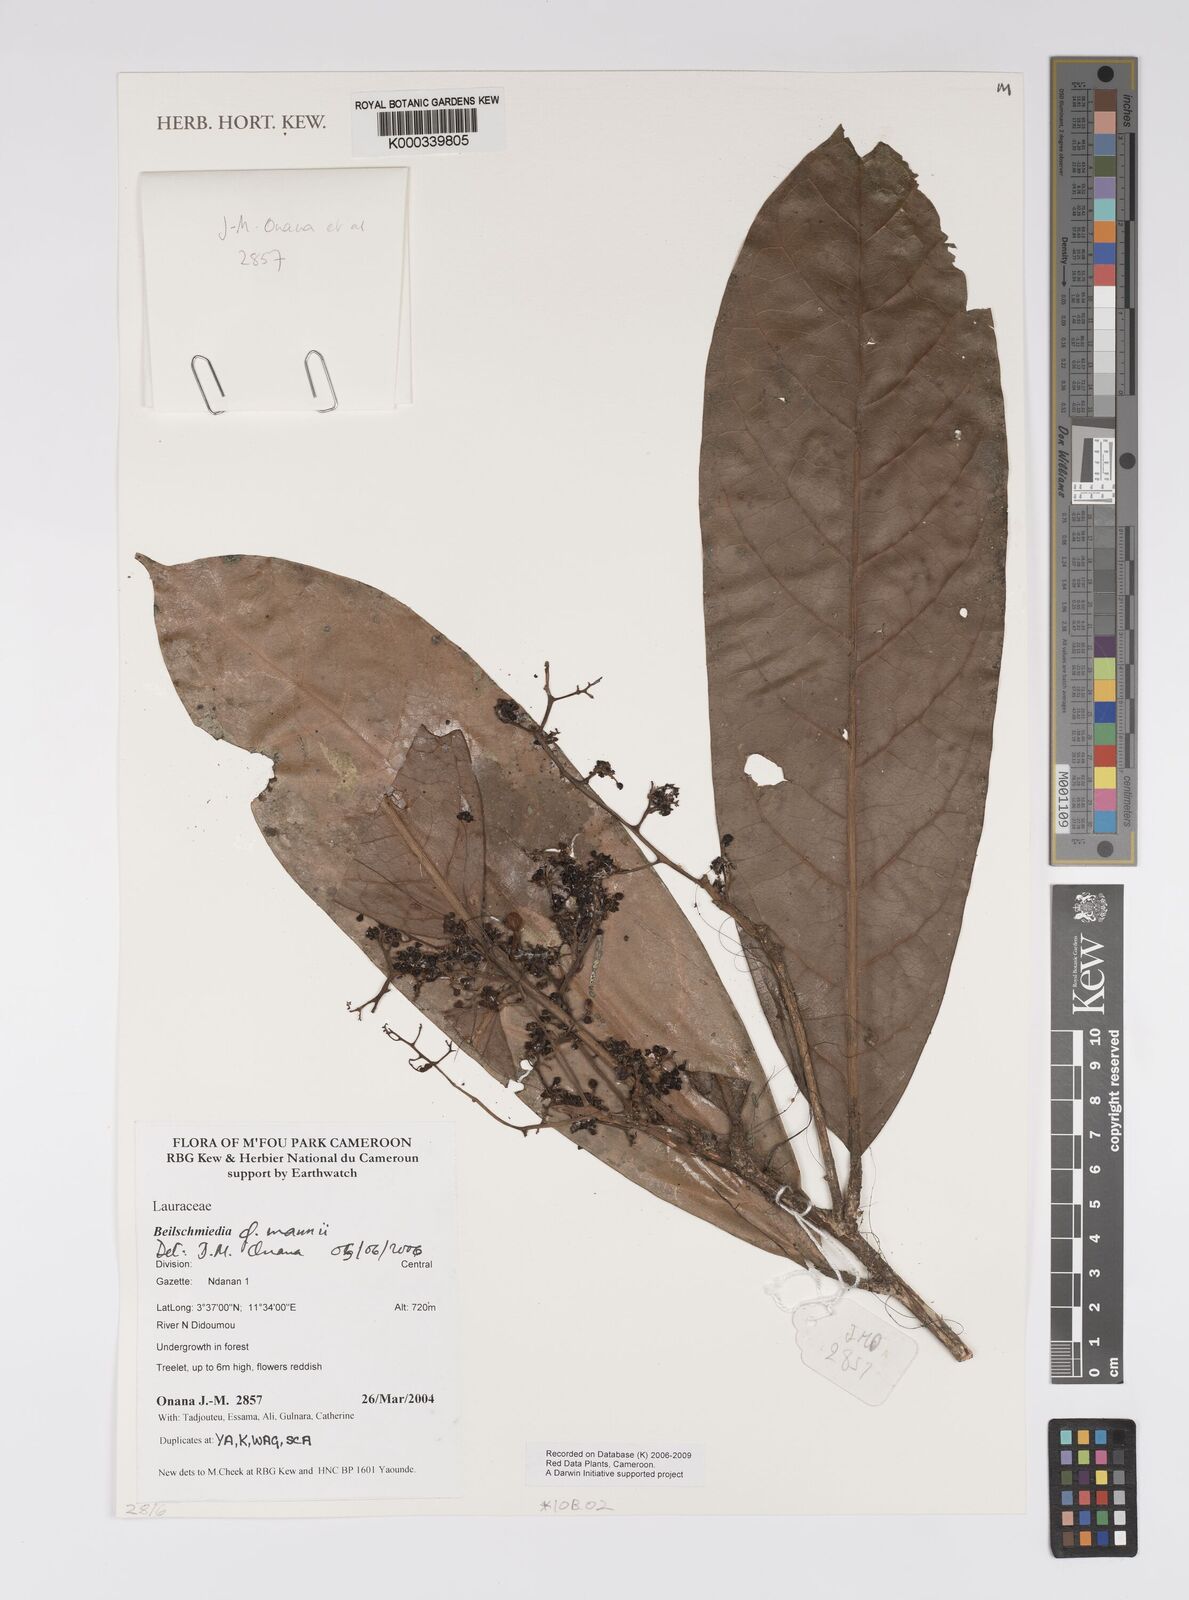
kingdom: Plantae
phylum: Tracheophyta
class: Magnoliopsida
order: Laurales
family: Lauraceae
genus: Beilschmiedia
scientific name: Beilschmiedia
